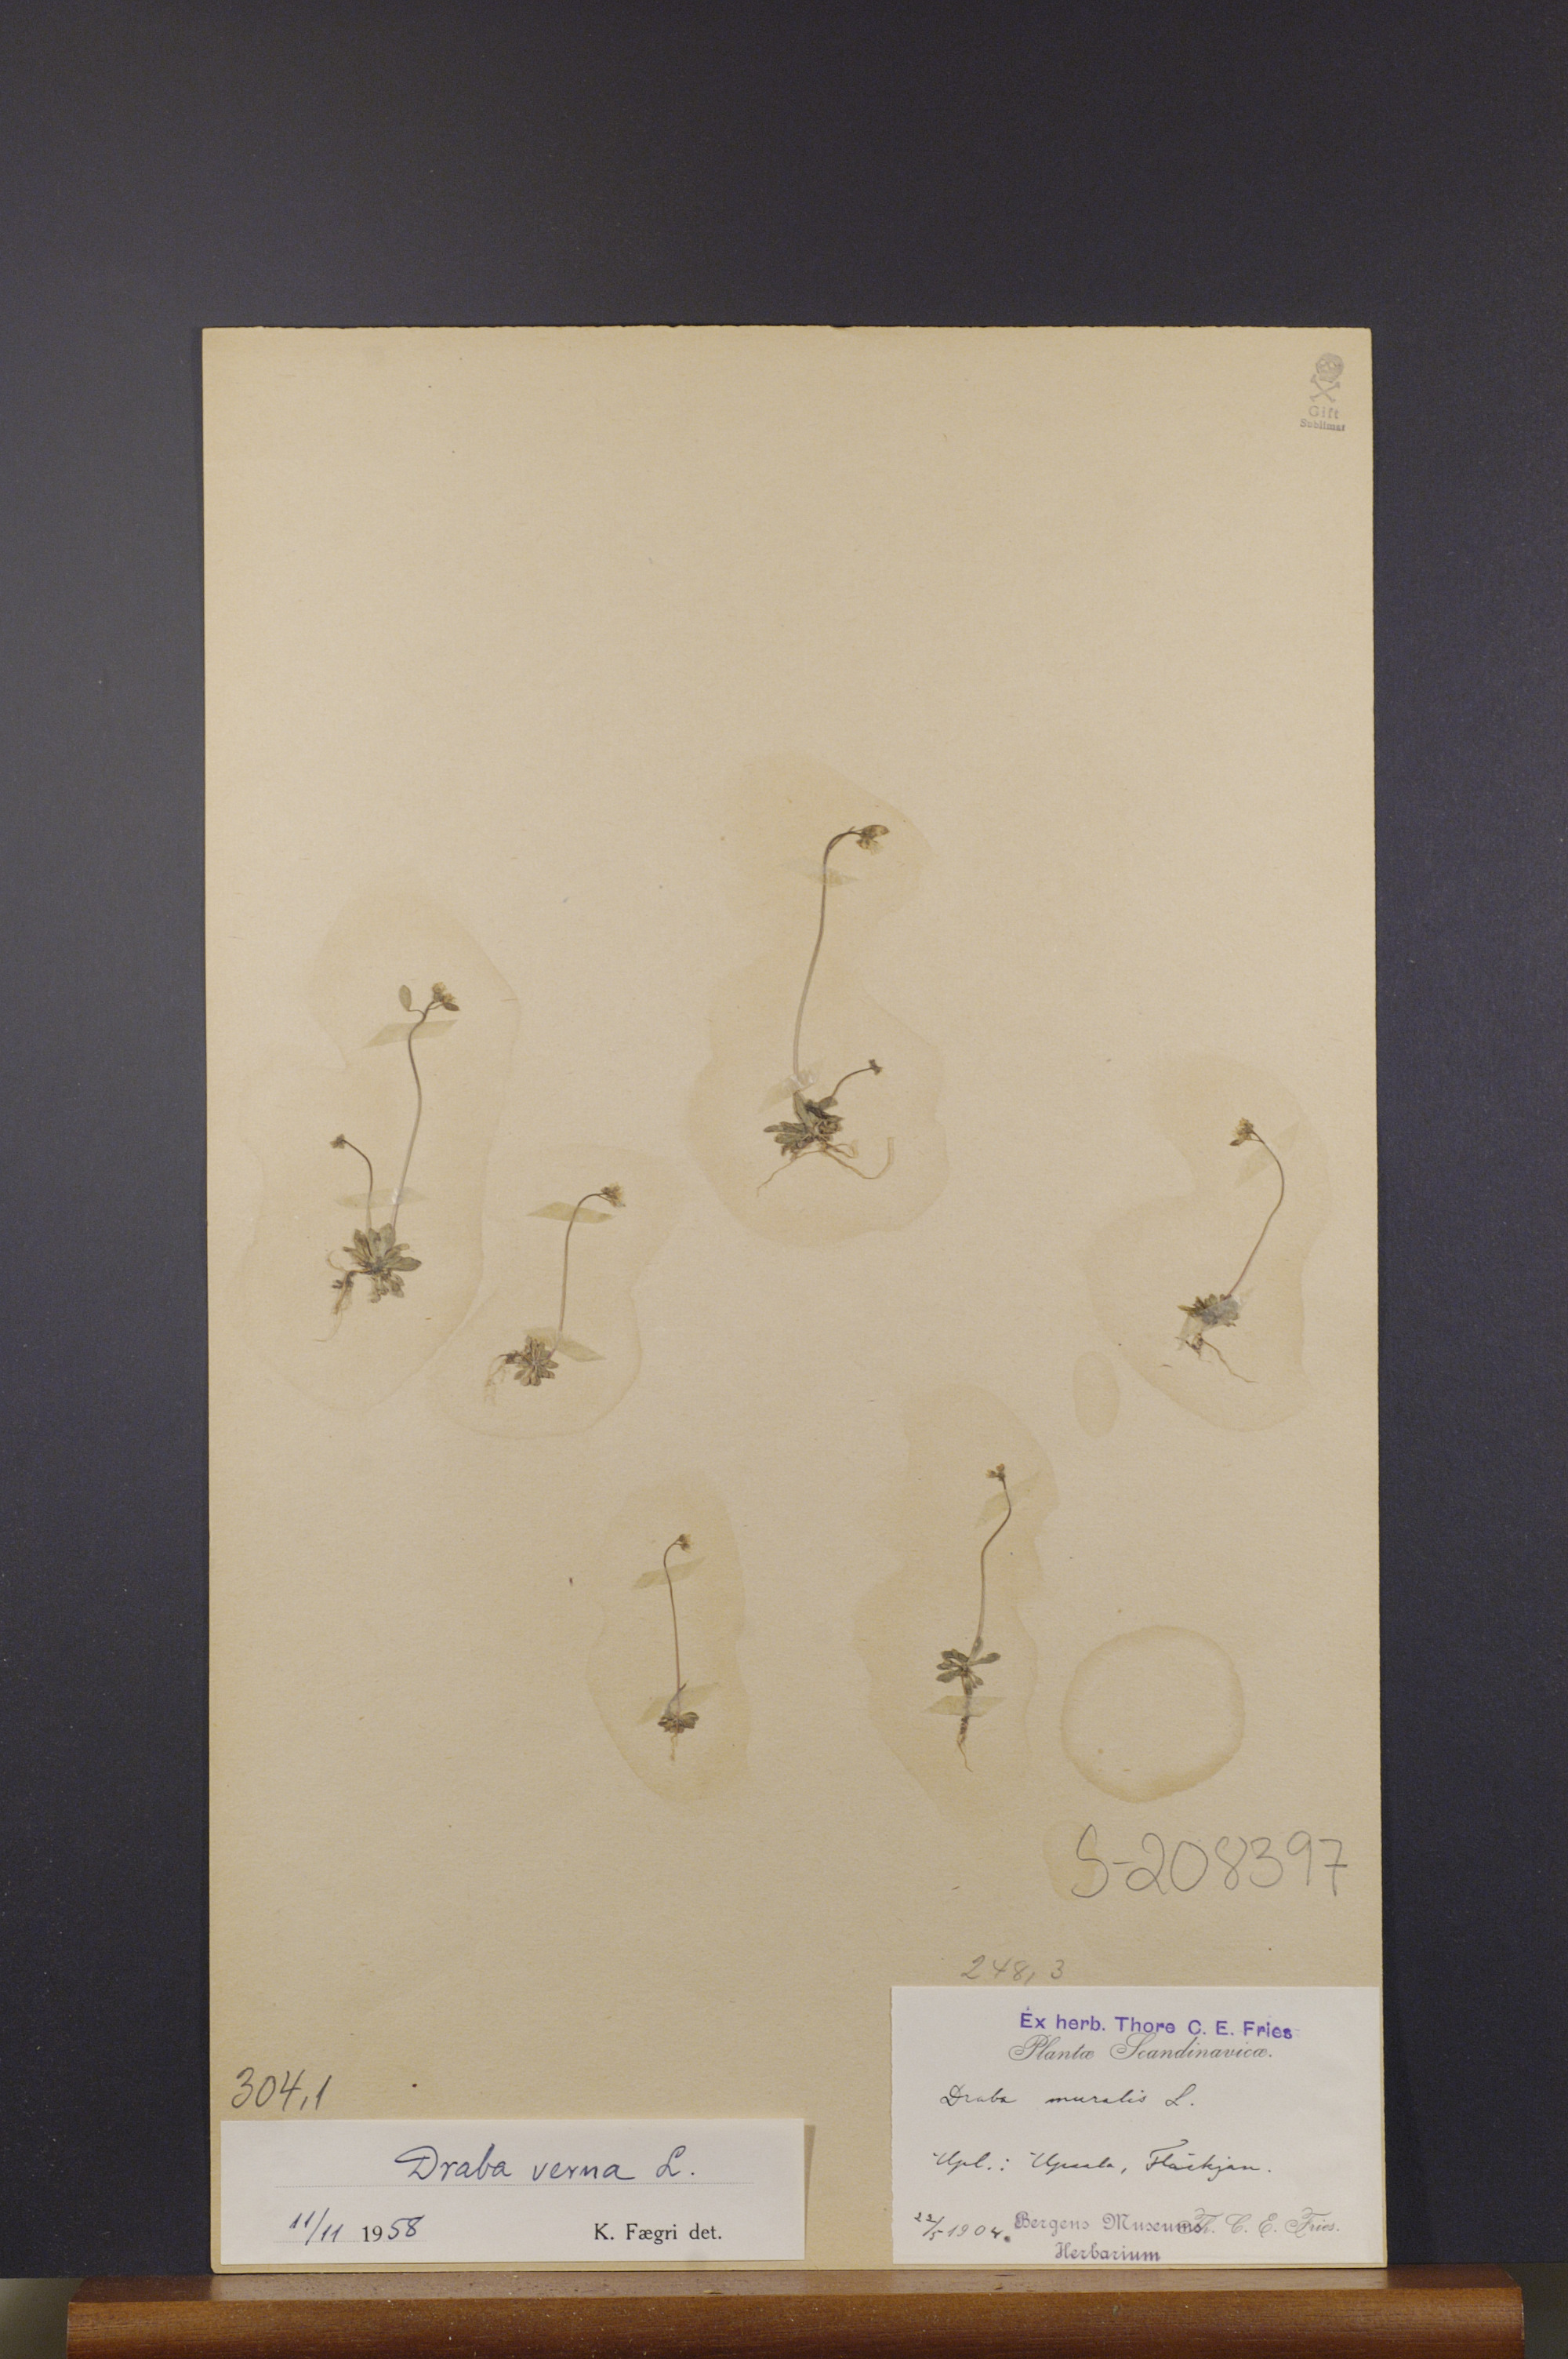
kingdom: Plantae
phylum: Tracheophyta
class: Magnoliopsida
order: Brassicales
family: Brassicaceae
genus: Draba
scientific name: Draba verna
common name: Spring draba
